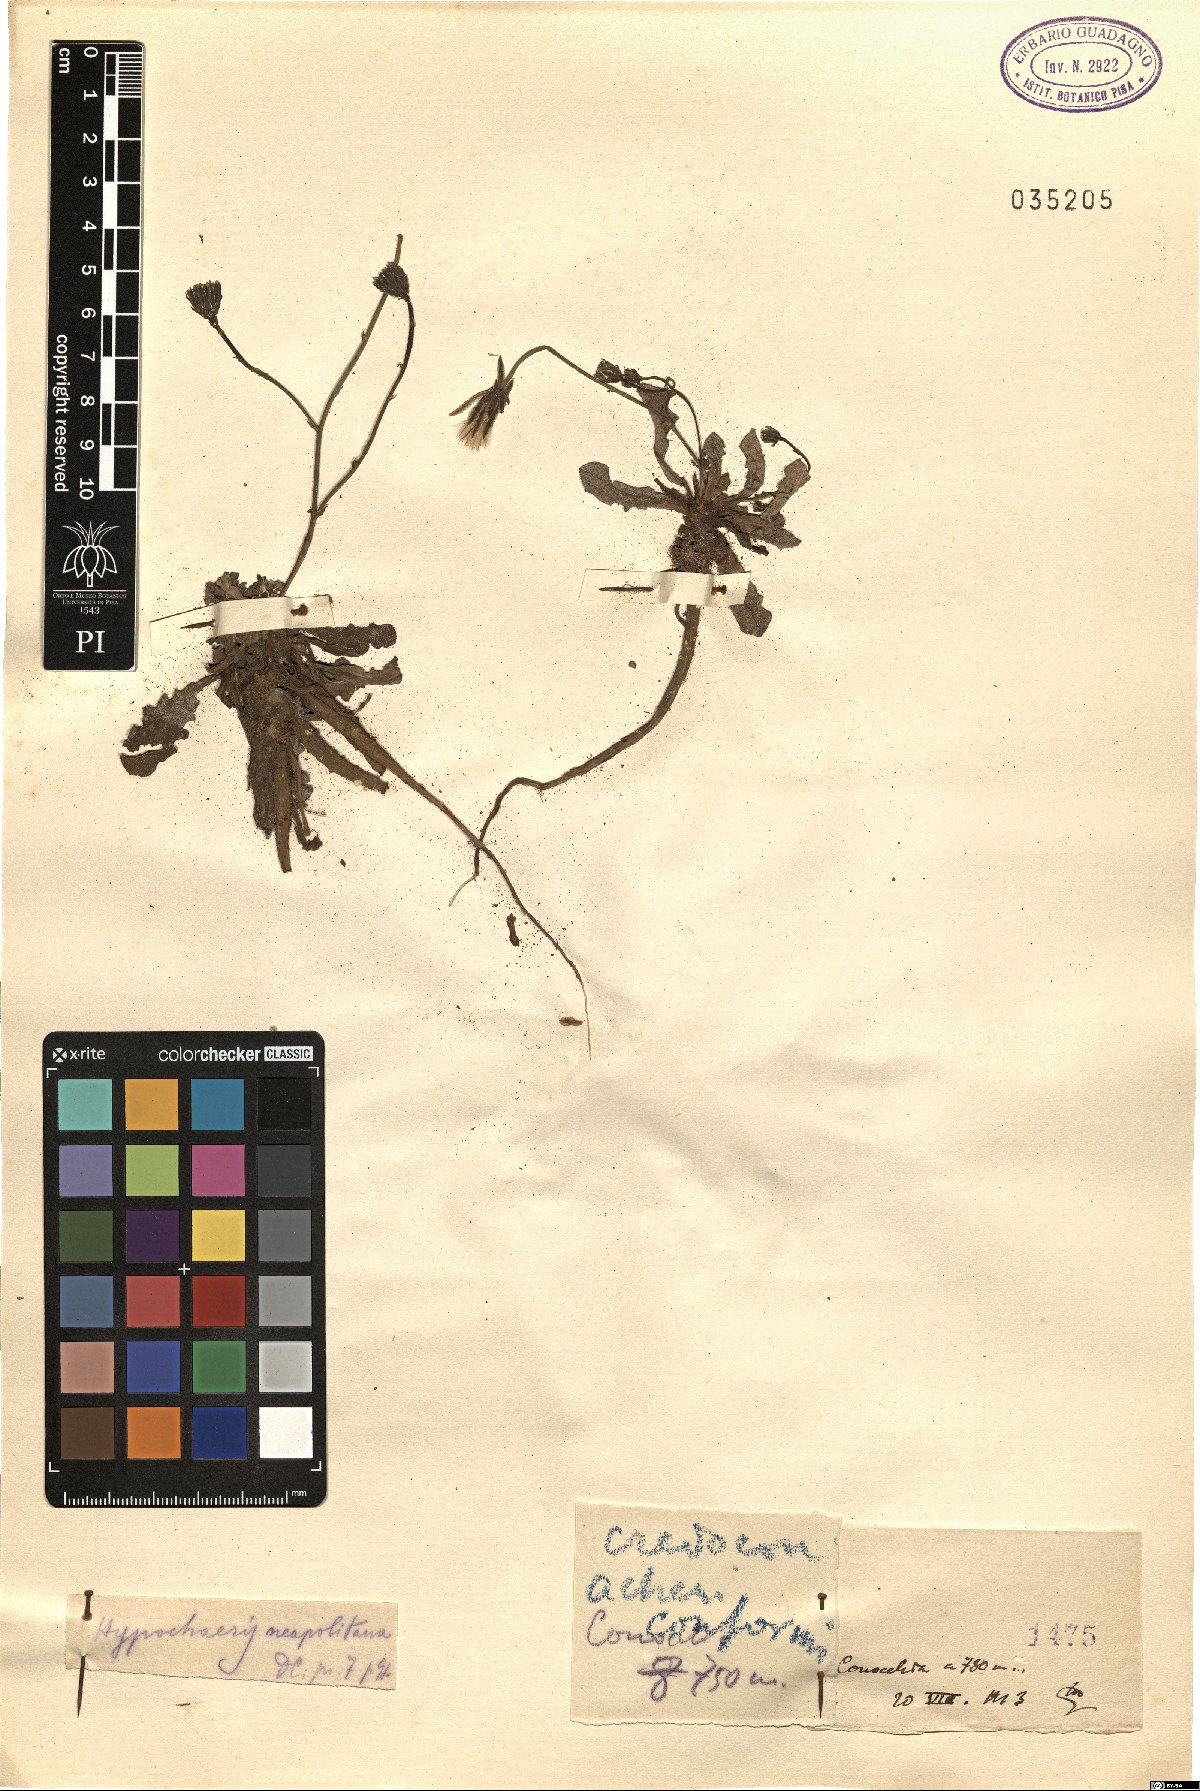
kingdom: Plantae
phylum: Tracheophyta
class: Magnoliopsida
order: Asterales
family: Asteraceae
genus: Leontodon
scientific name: Leontodon
